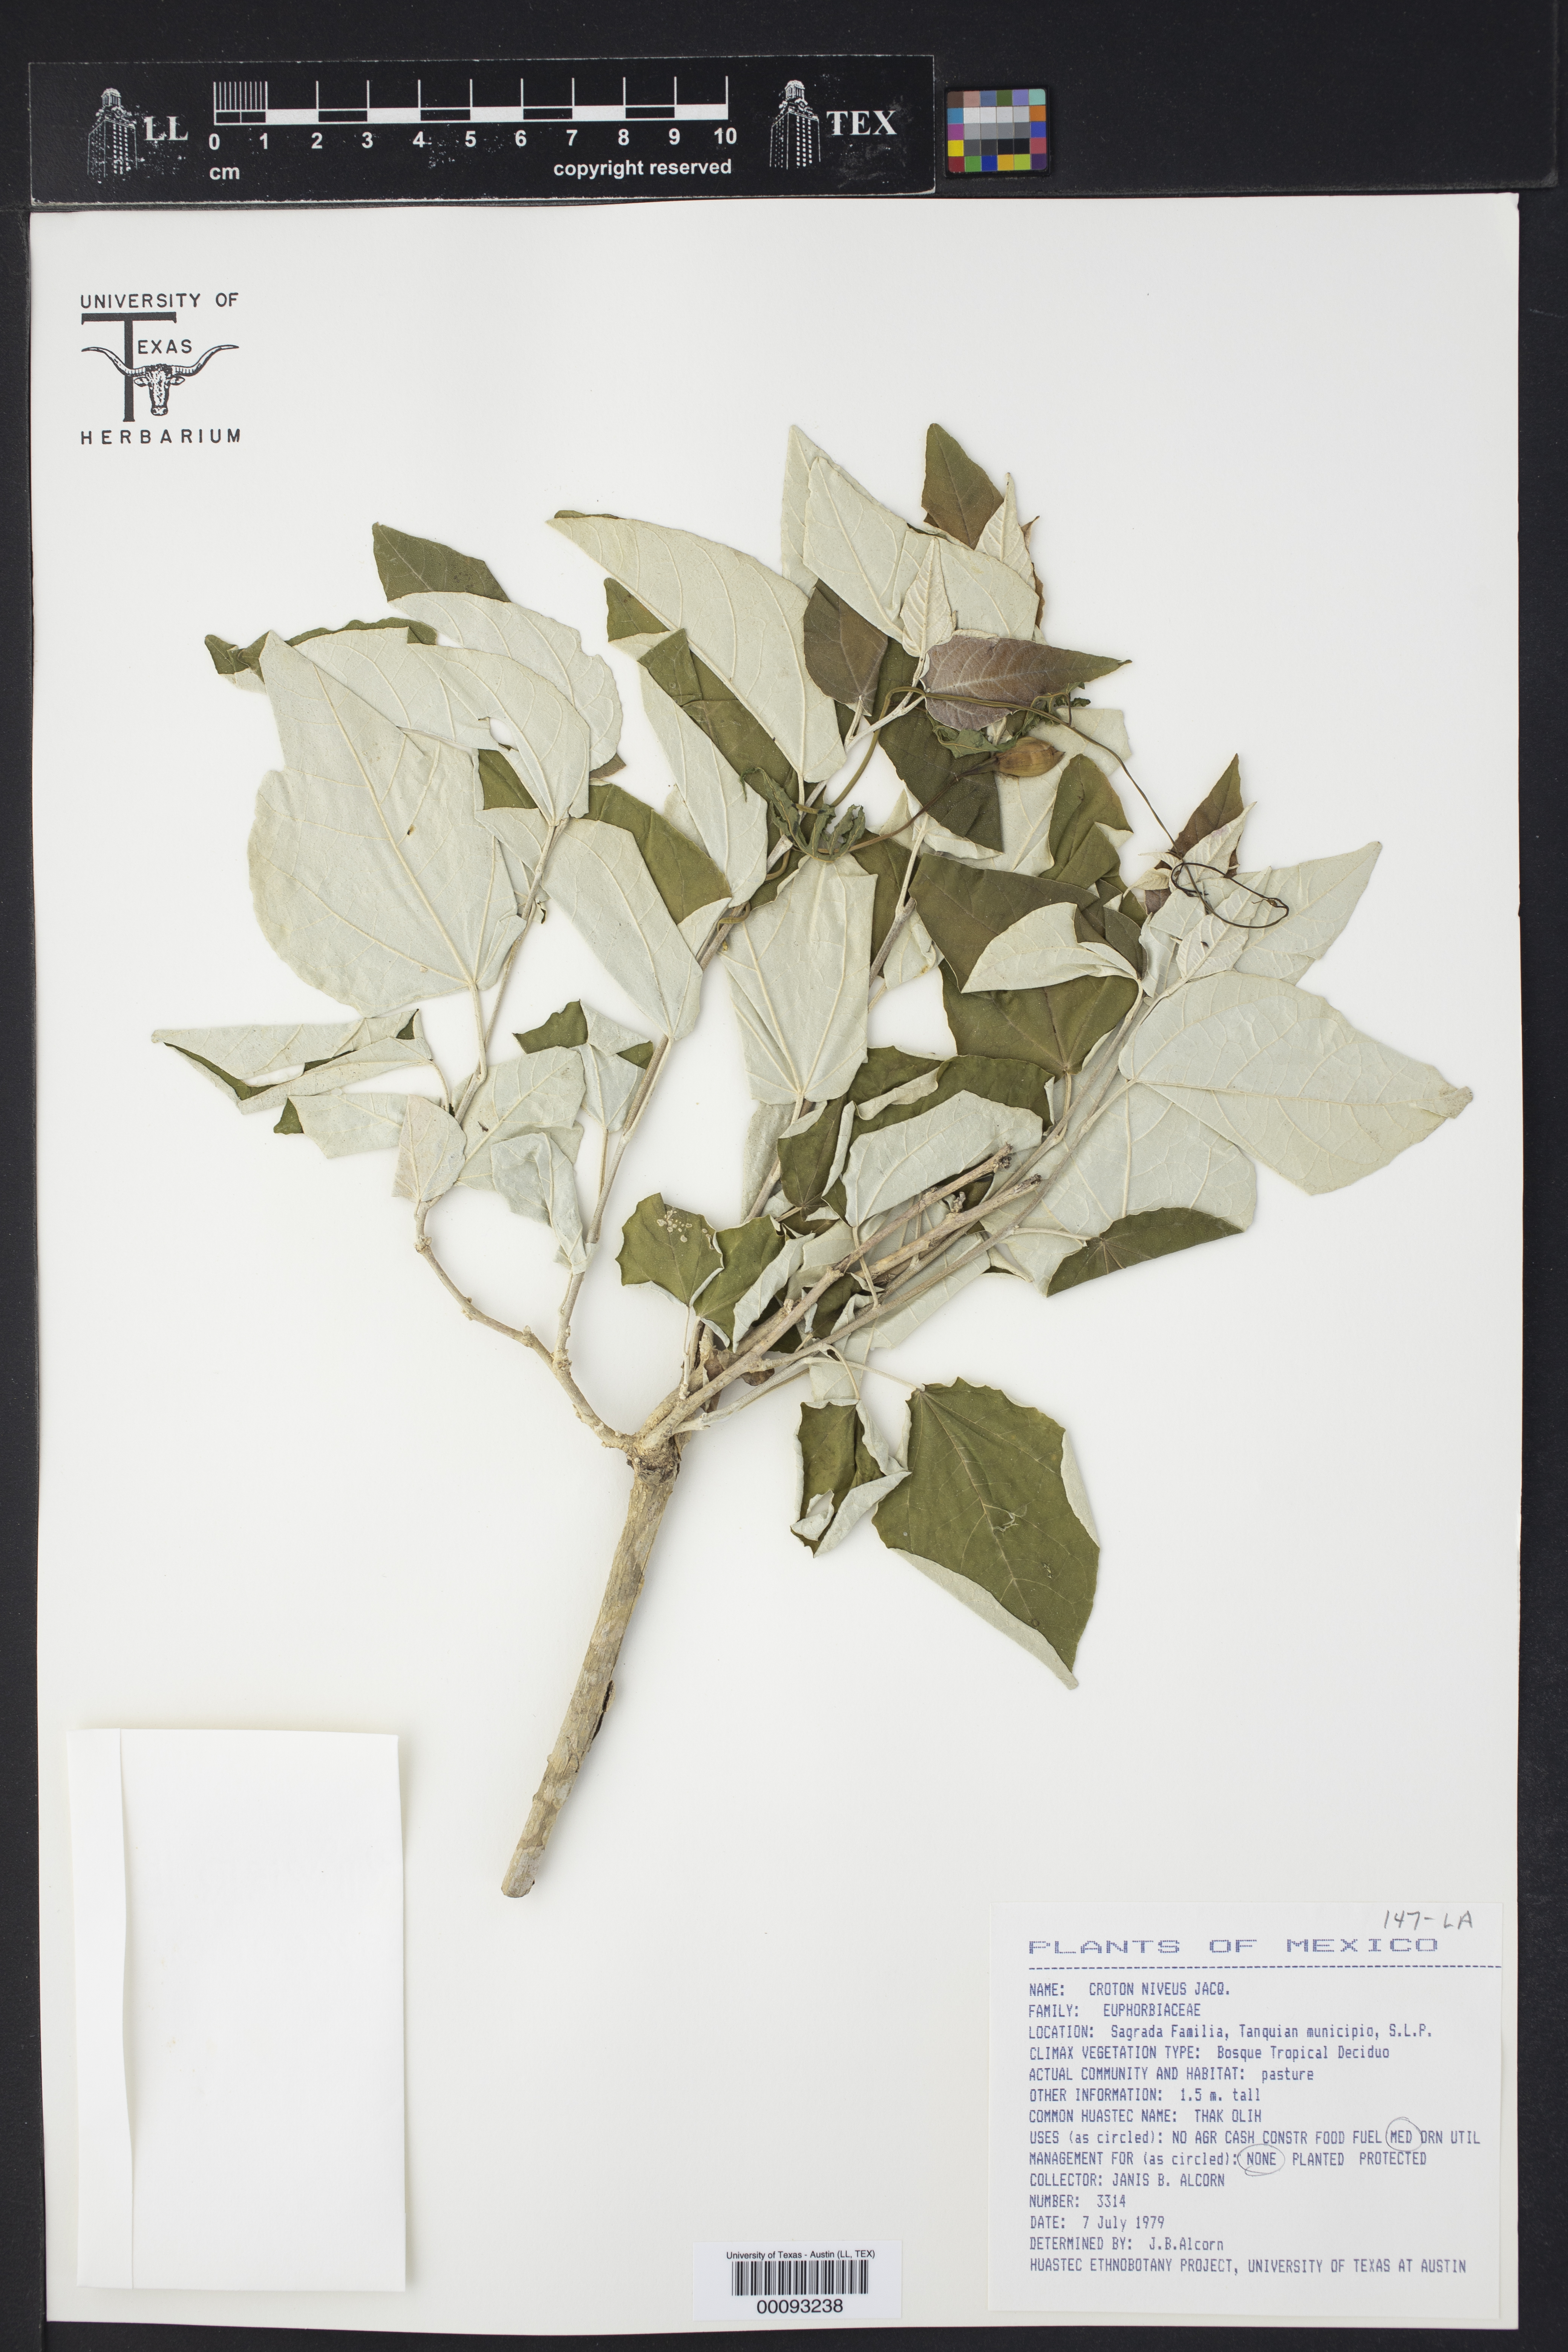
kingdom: Plantae
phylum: Tracheophyta
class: Magnoliopsida
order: Malpighiales
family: Euphorbiaceae
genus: Croton
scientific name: Croton watsonii
